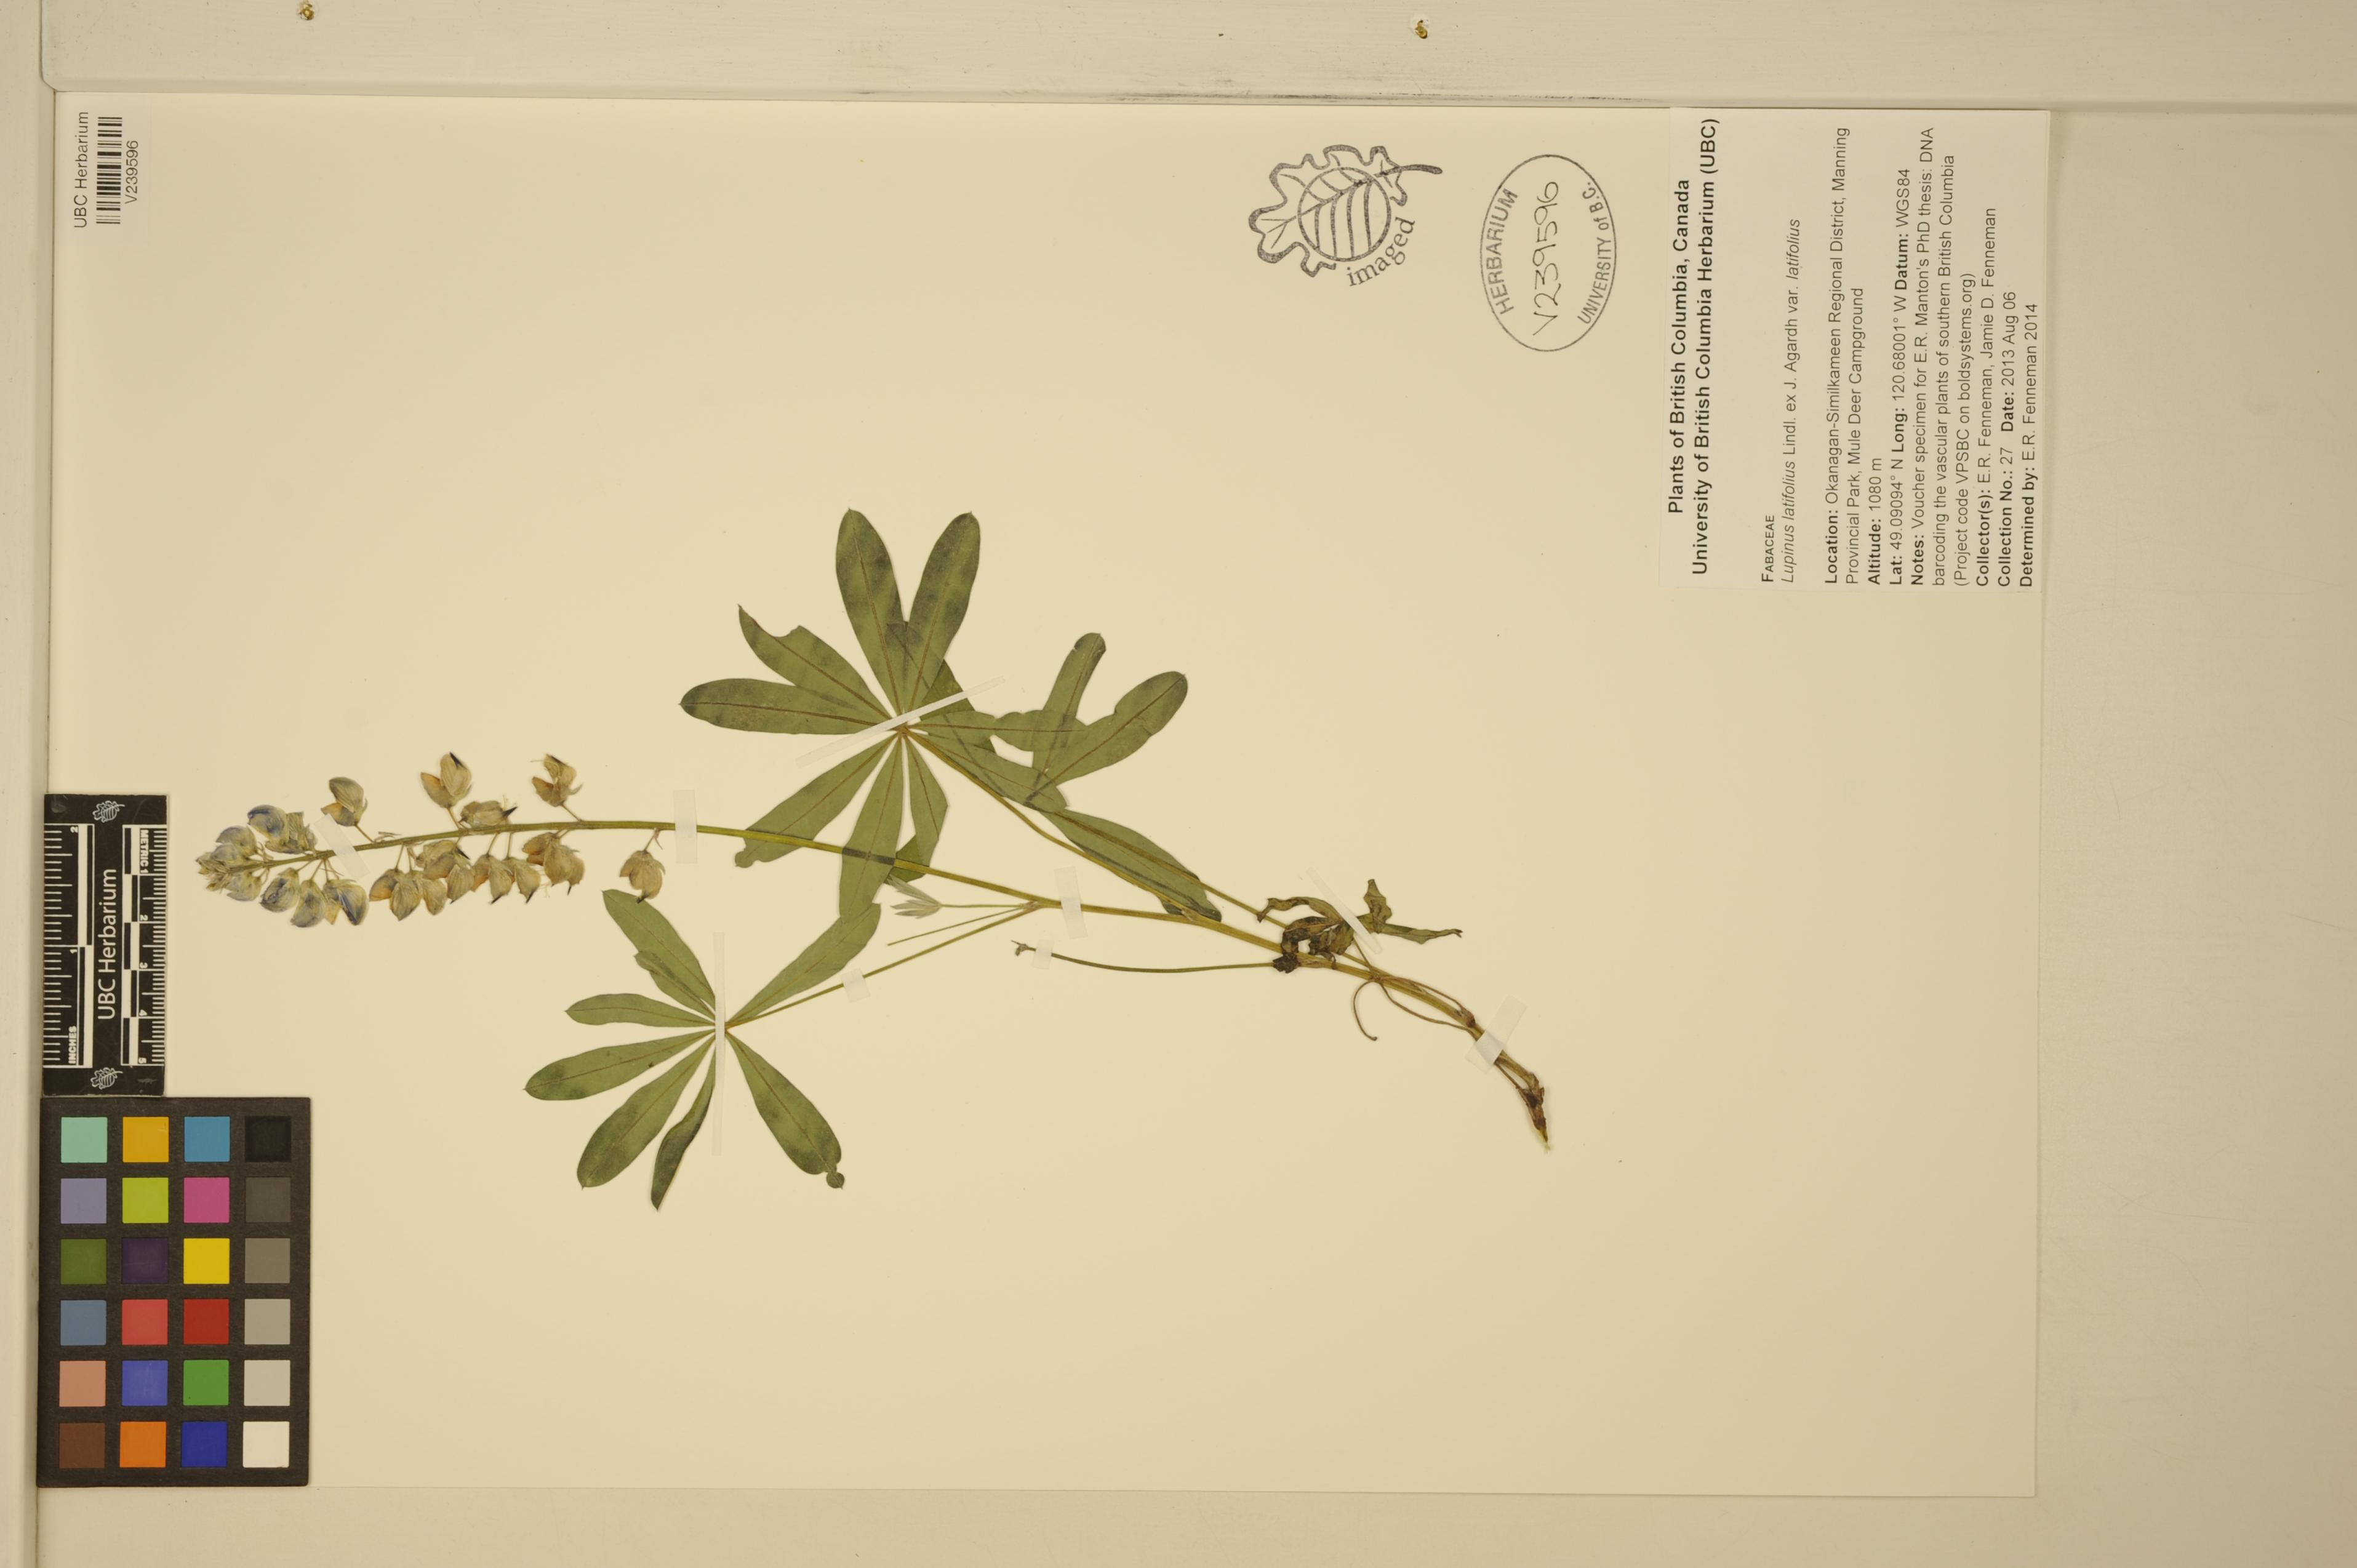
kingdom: Plantae
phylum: Tracheophyta
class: Magnoliopsida
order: Fabales
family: Fabaceae
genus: Lupinus
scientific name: Lupinus latifolius
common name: Broad-leaved lupine
